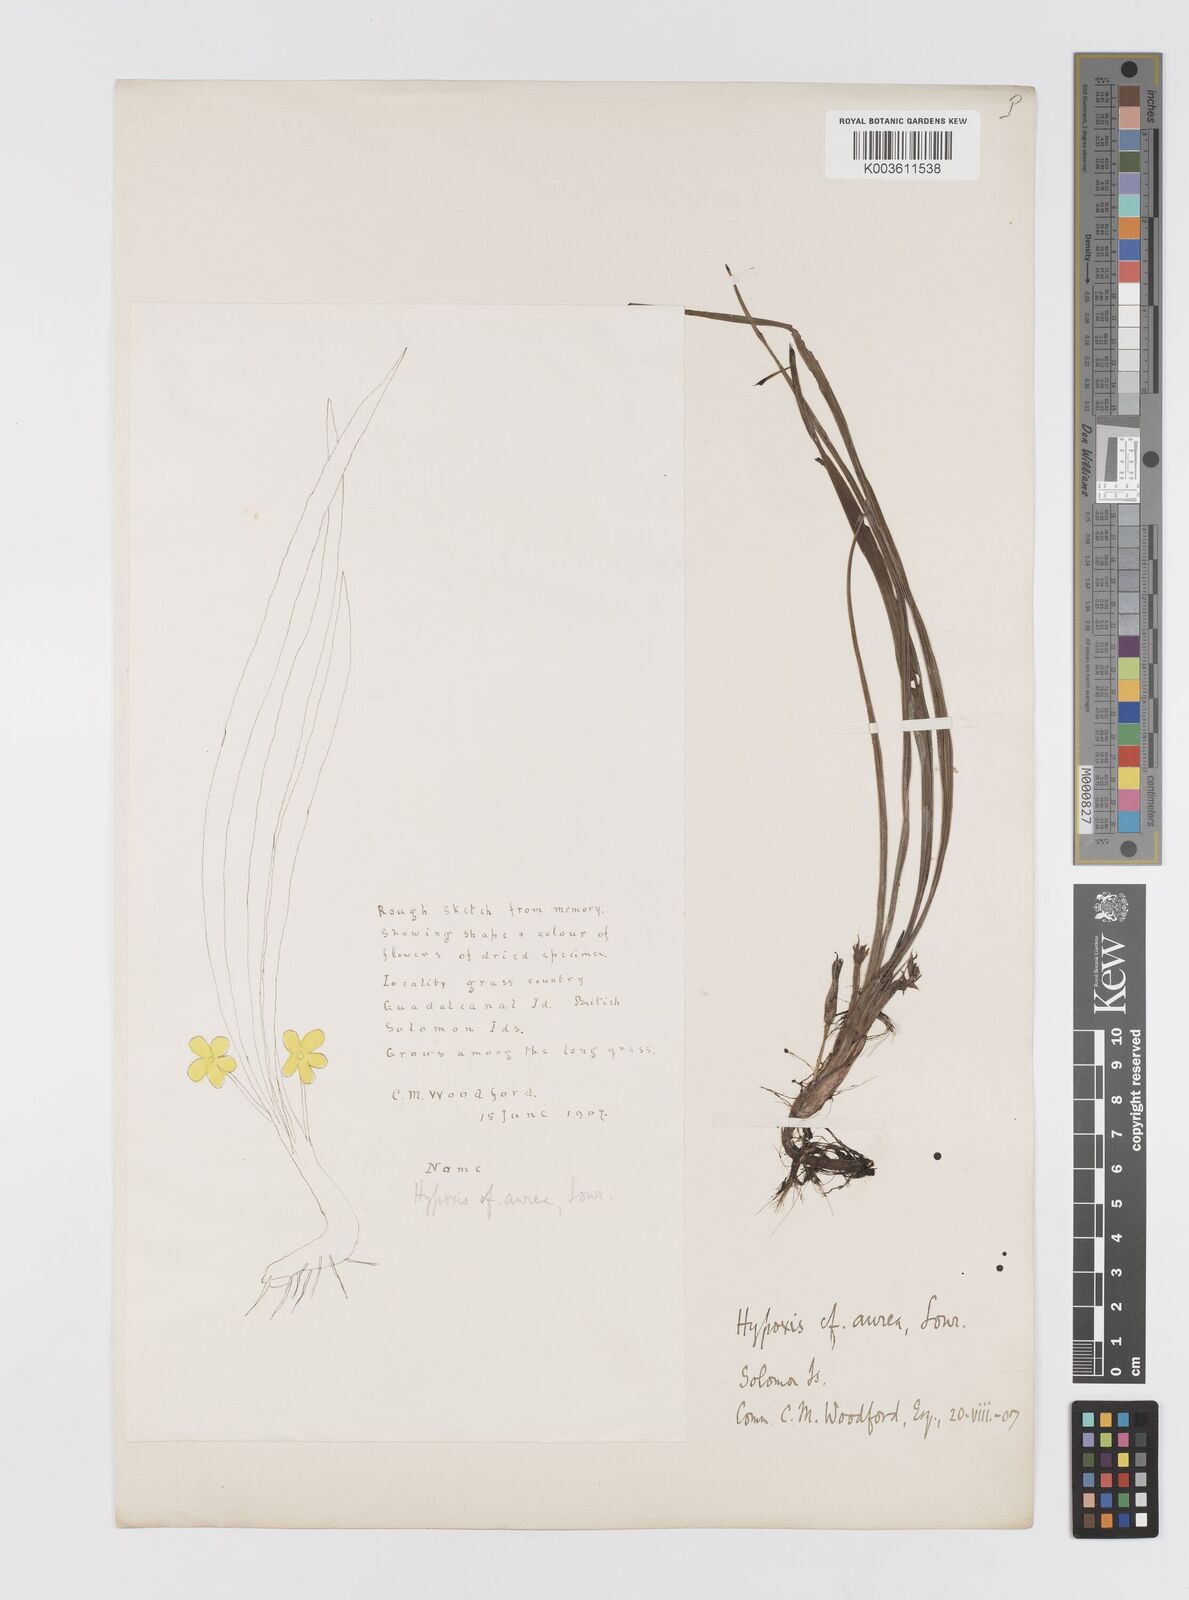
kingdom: Plantae
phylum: Tracheophyta
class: Liliopsida
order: Asparagales
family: Hypoxidaceae
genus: Hypoxis
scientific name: Hypoxis aurea
